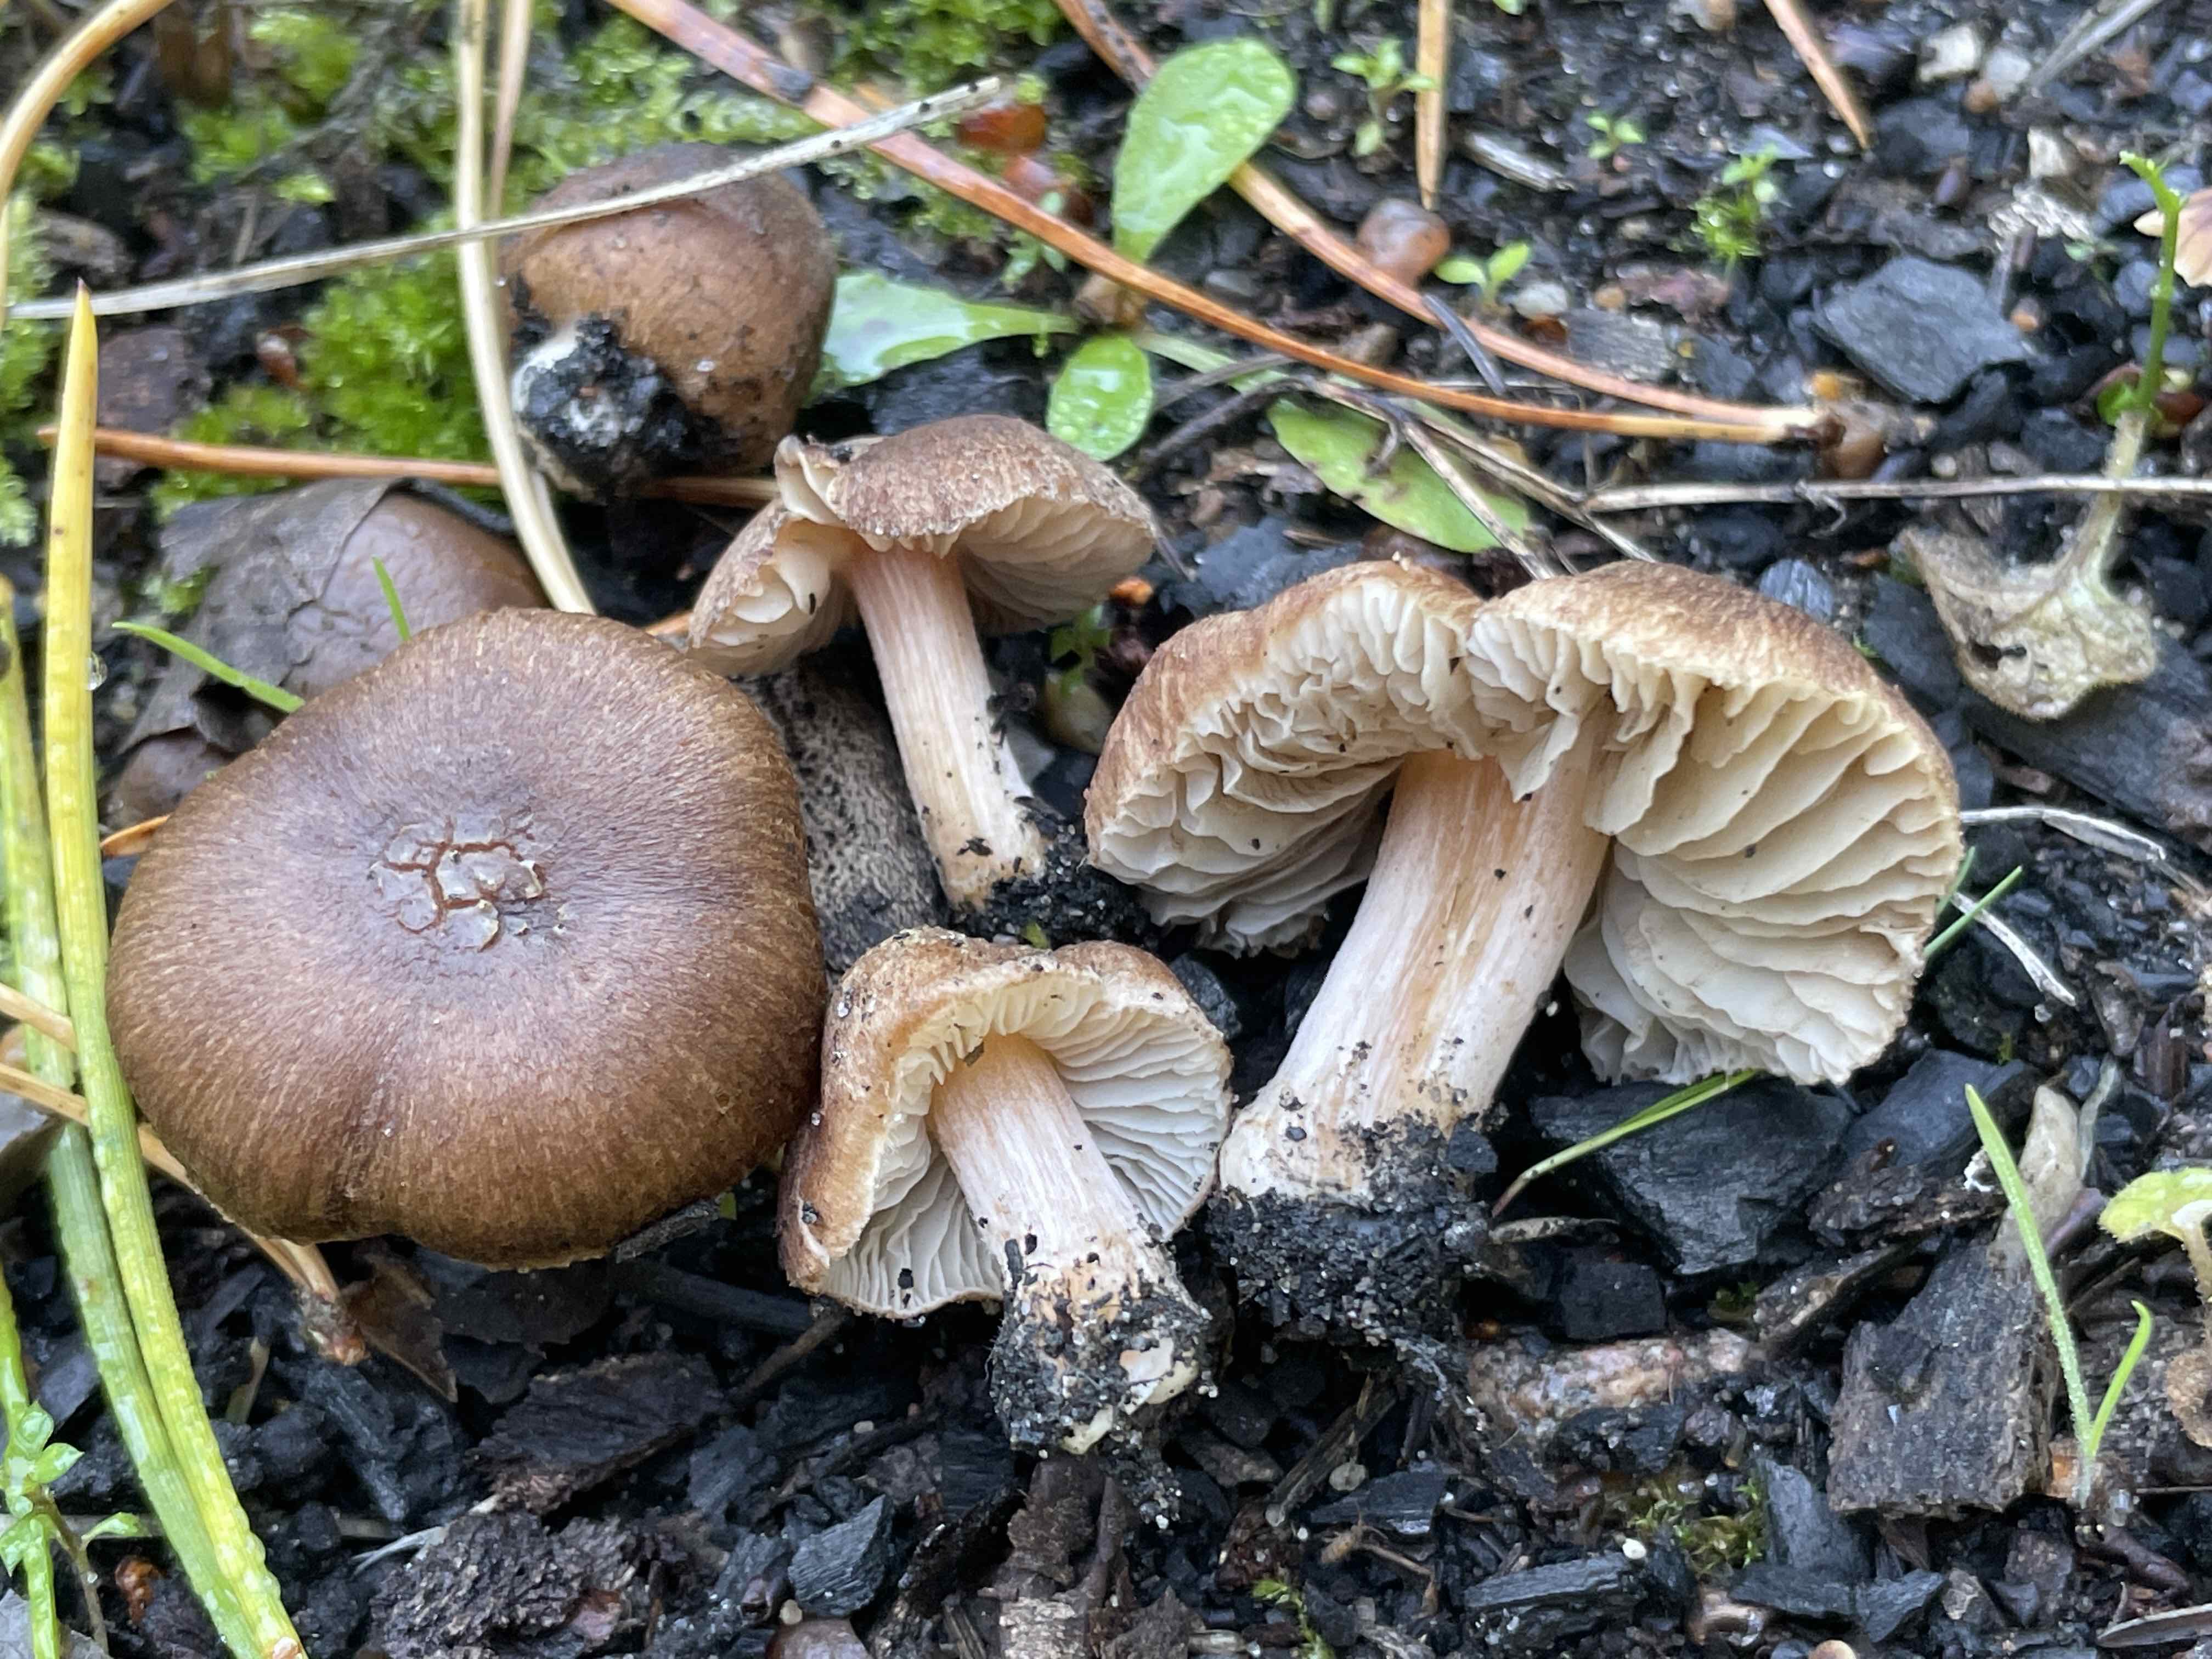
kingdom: Fungi
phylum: Basidiomycota
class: Agaricomycetes
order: Agaricales
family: Inocybaceae
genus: Inocybe
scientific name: Inocybe
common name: trævlhat
